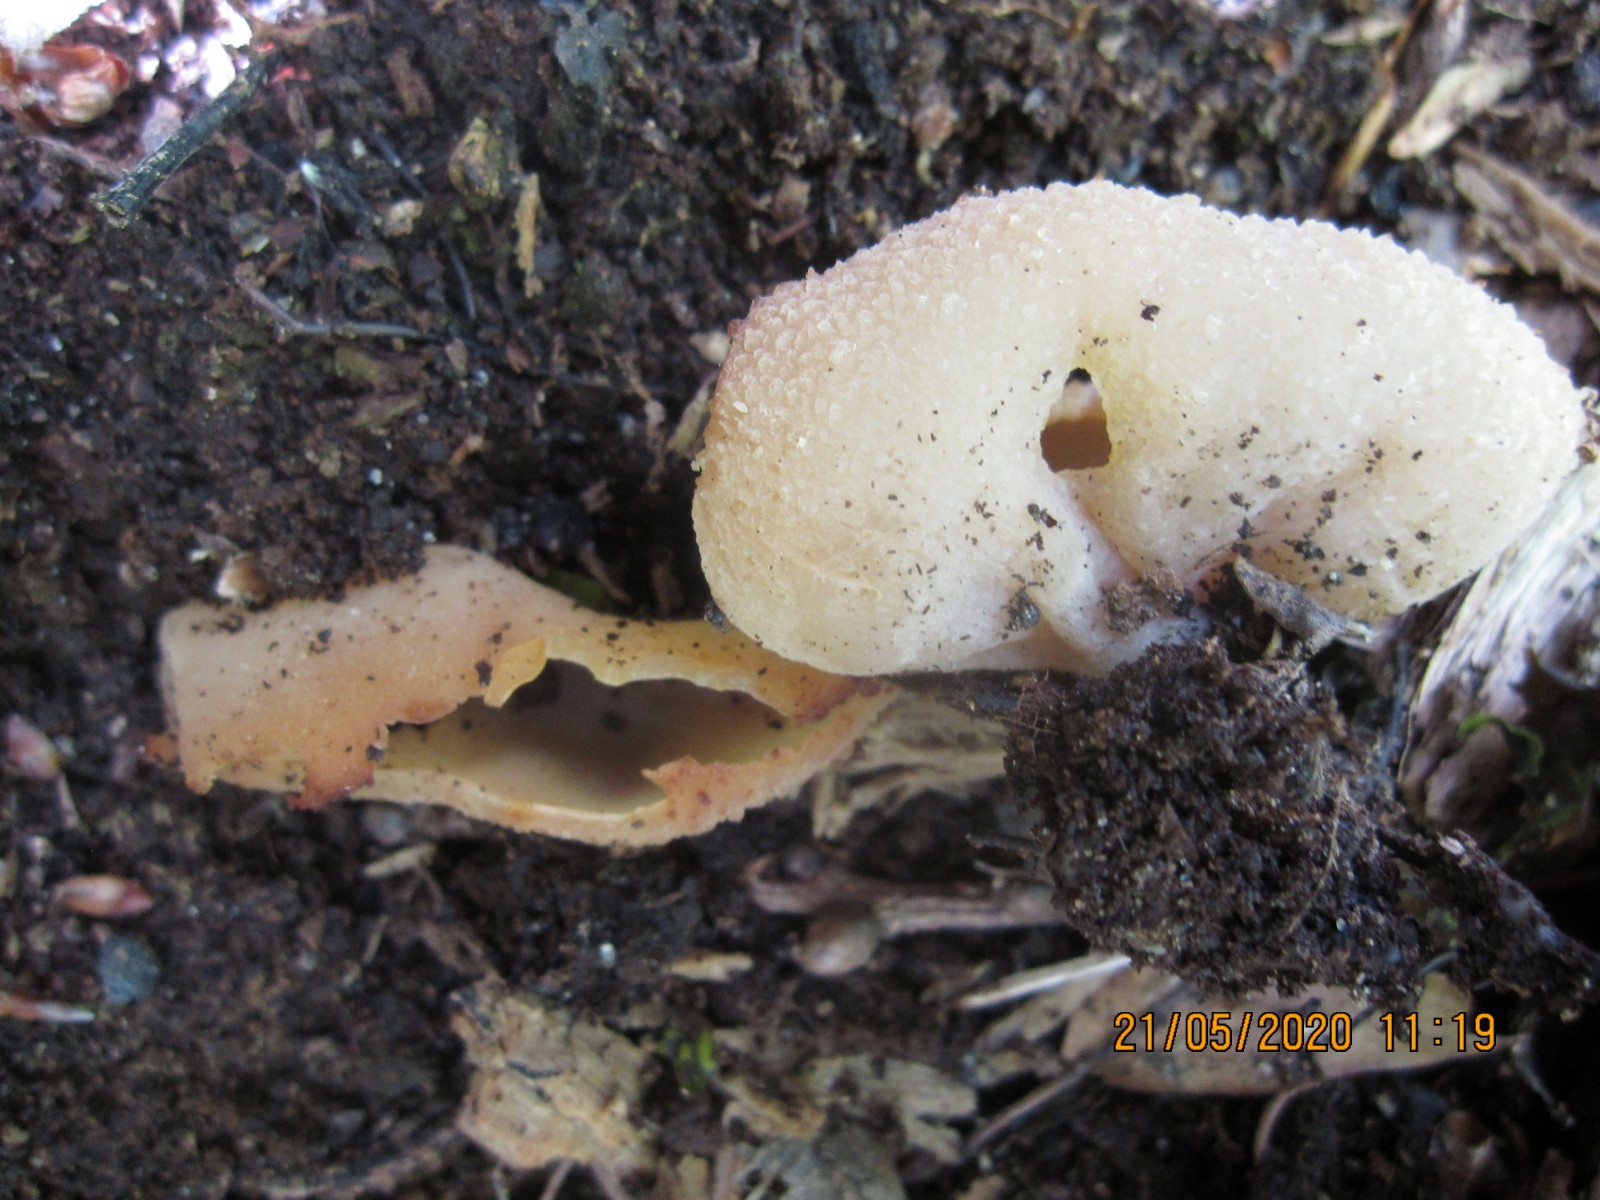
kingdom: Fungi
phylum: Ascomycota
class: Pezizomycetes
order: Pezizales
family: Pezizaceae
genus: Peziza
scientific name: Peziza varia
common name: Ved-bægersvamp
